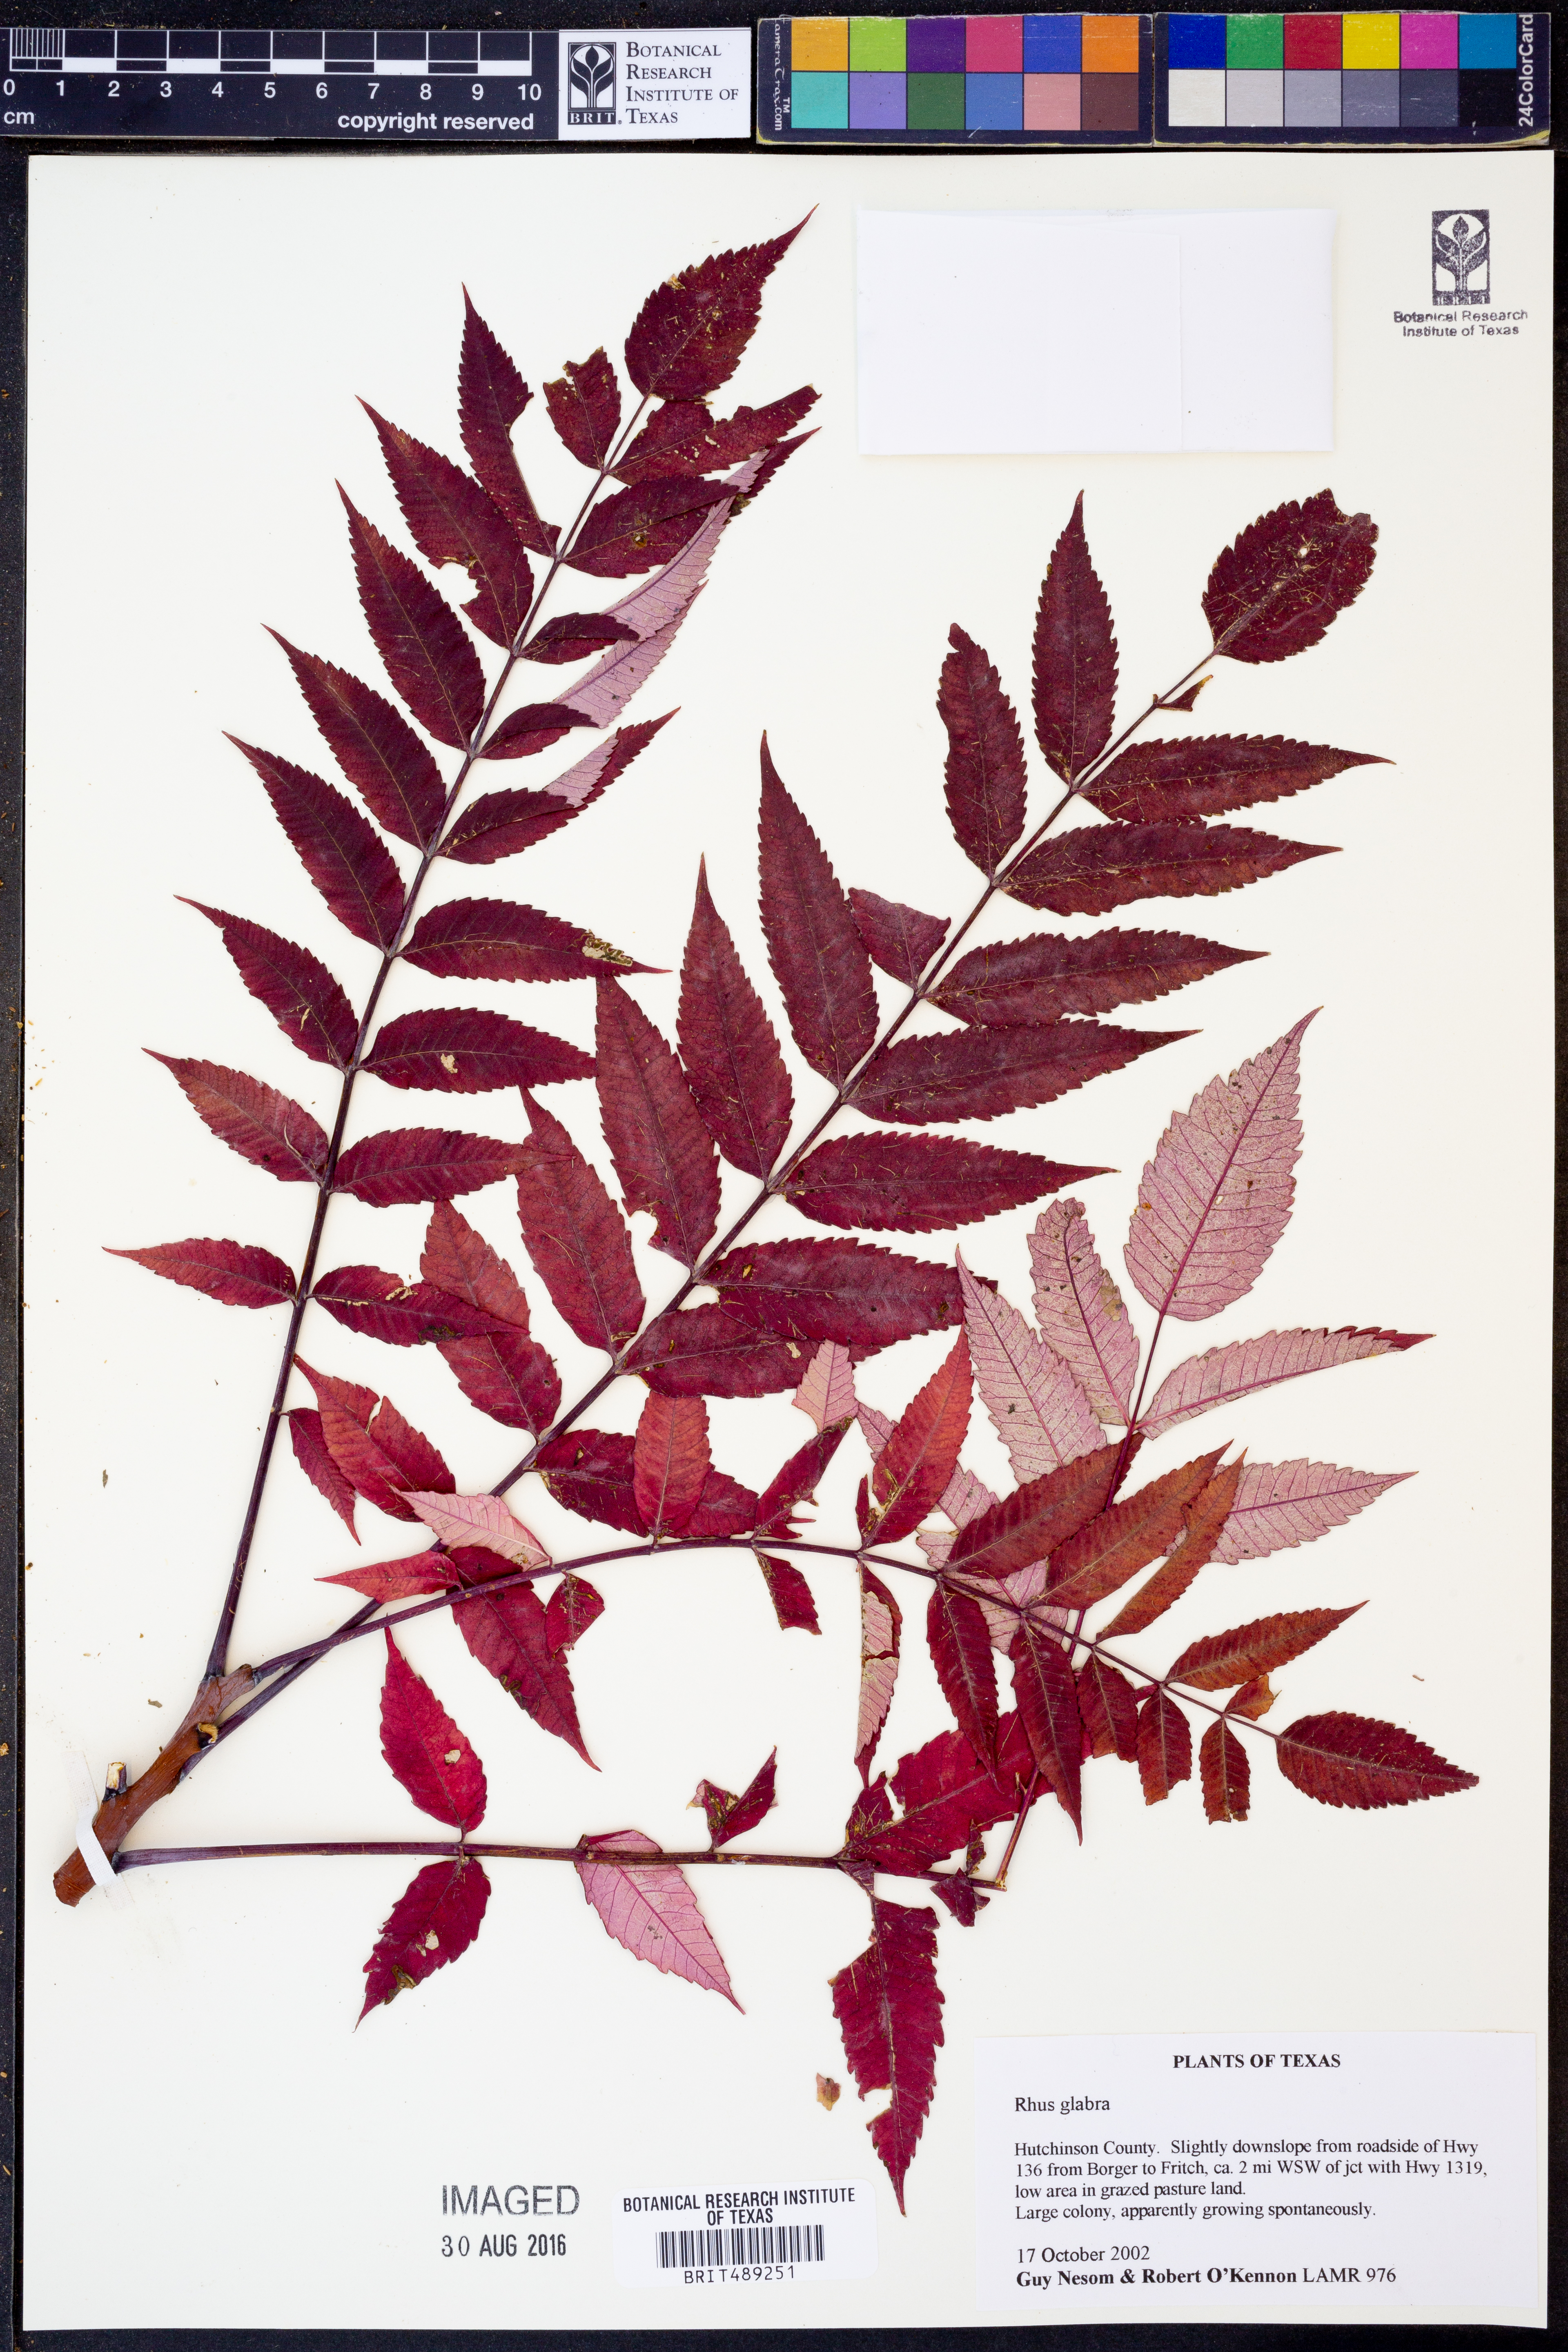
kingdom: Plantae
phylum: Tracheophyta
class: Magnoliopsida
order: Sapindales
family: Anacardiaceae
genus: Rhus
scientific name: Rhus glabra
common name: Scarlet sumac
